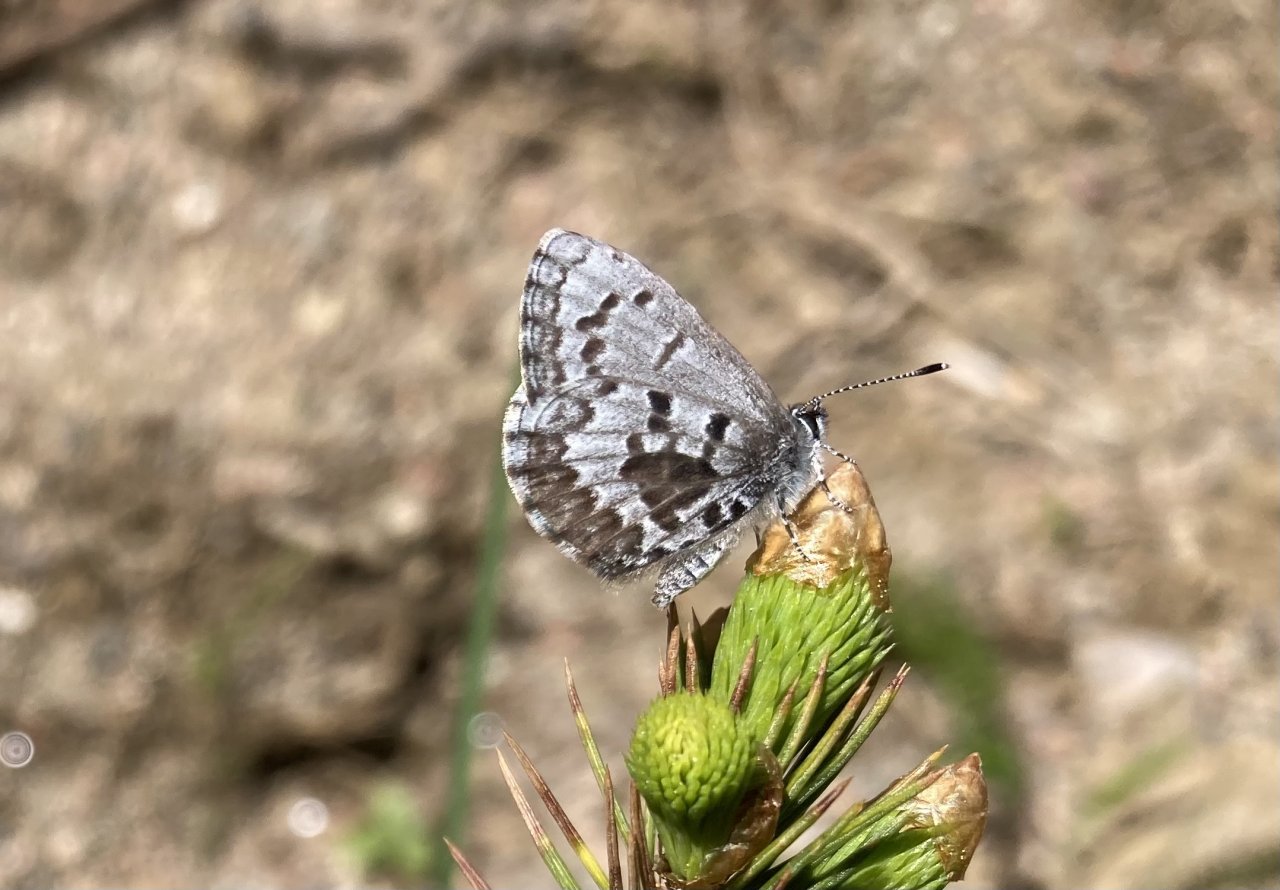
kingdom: Animalia
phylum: Arthropoda
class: Insecta
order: Lepidoptera
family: Lycaenidae
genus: Celastrina
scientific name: Celastrina lucia
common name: Northern Spring Azure
